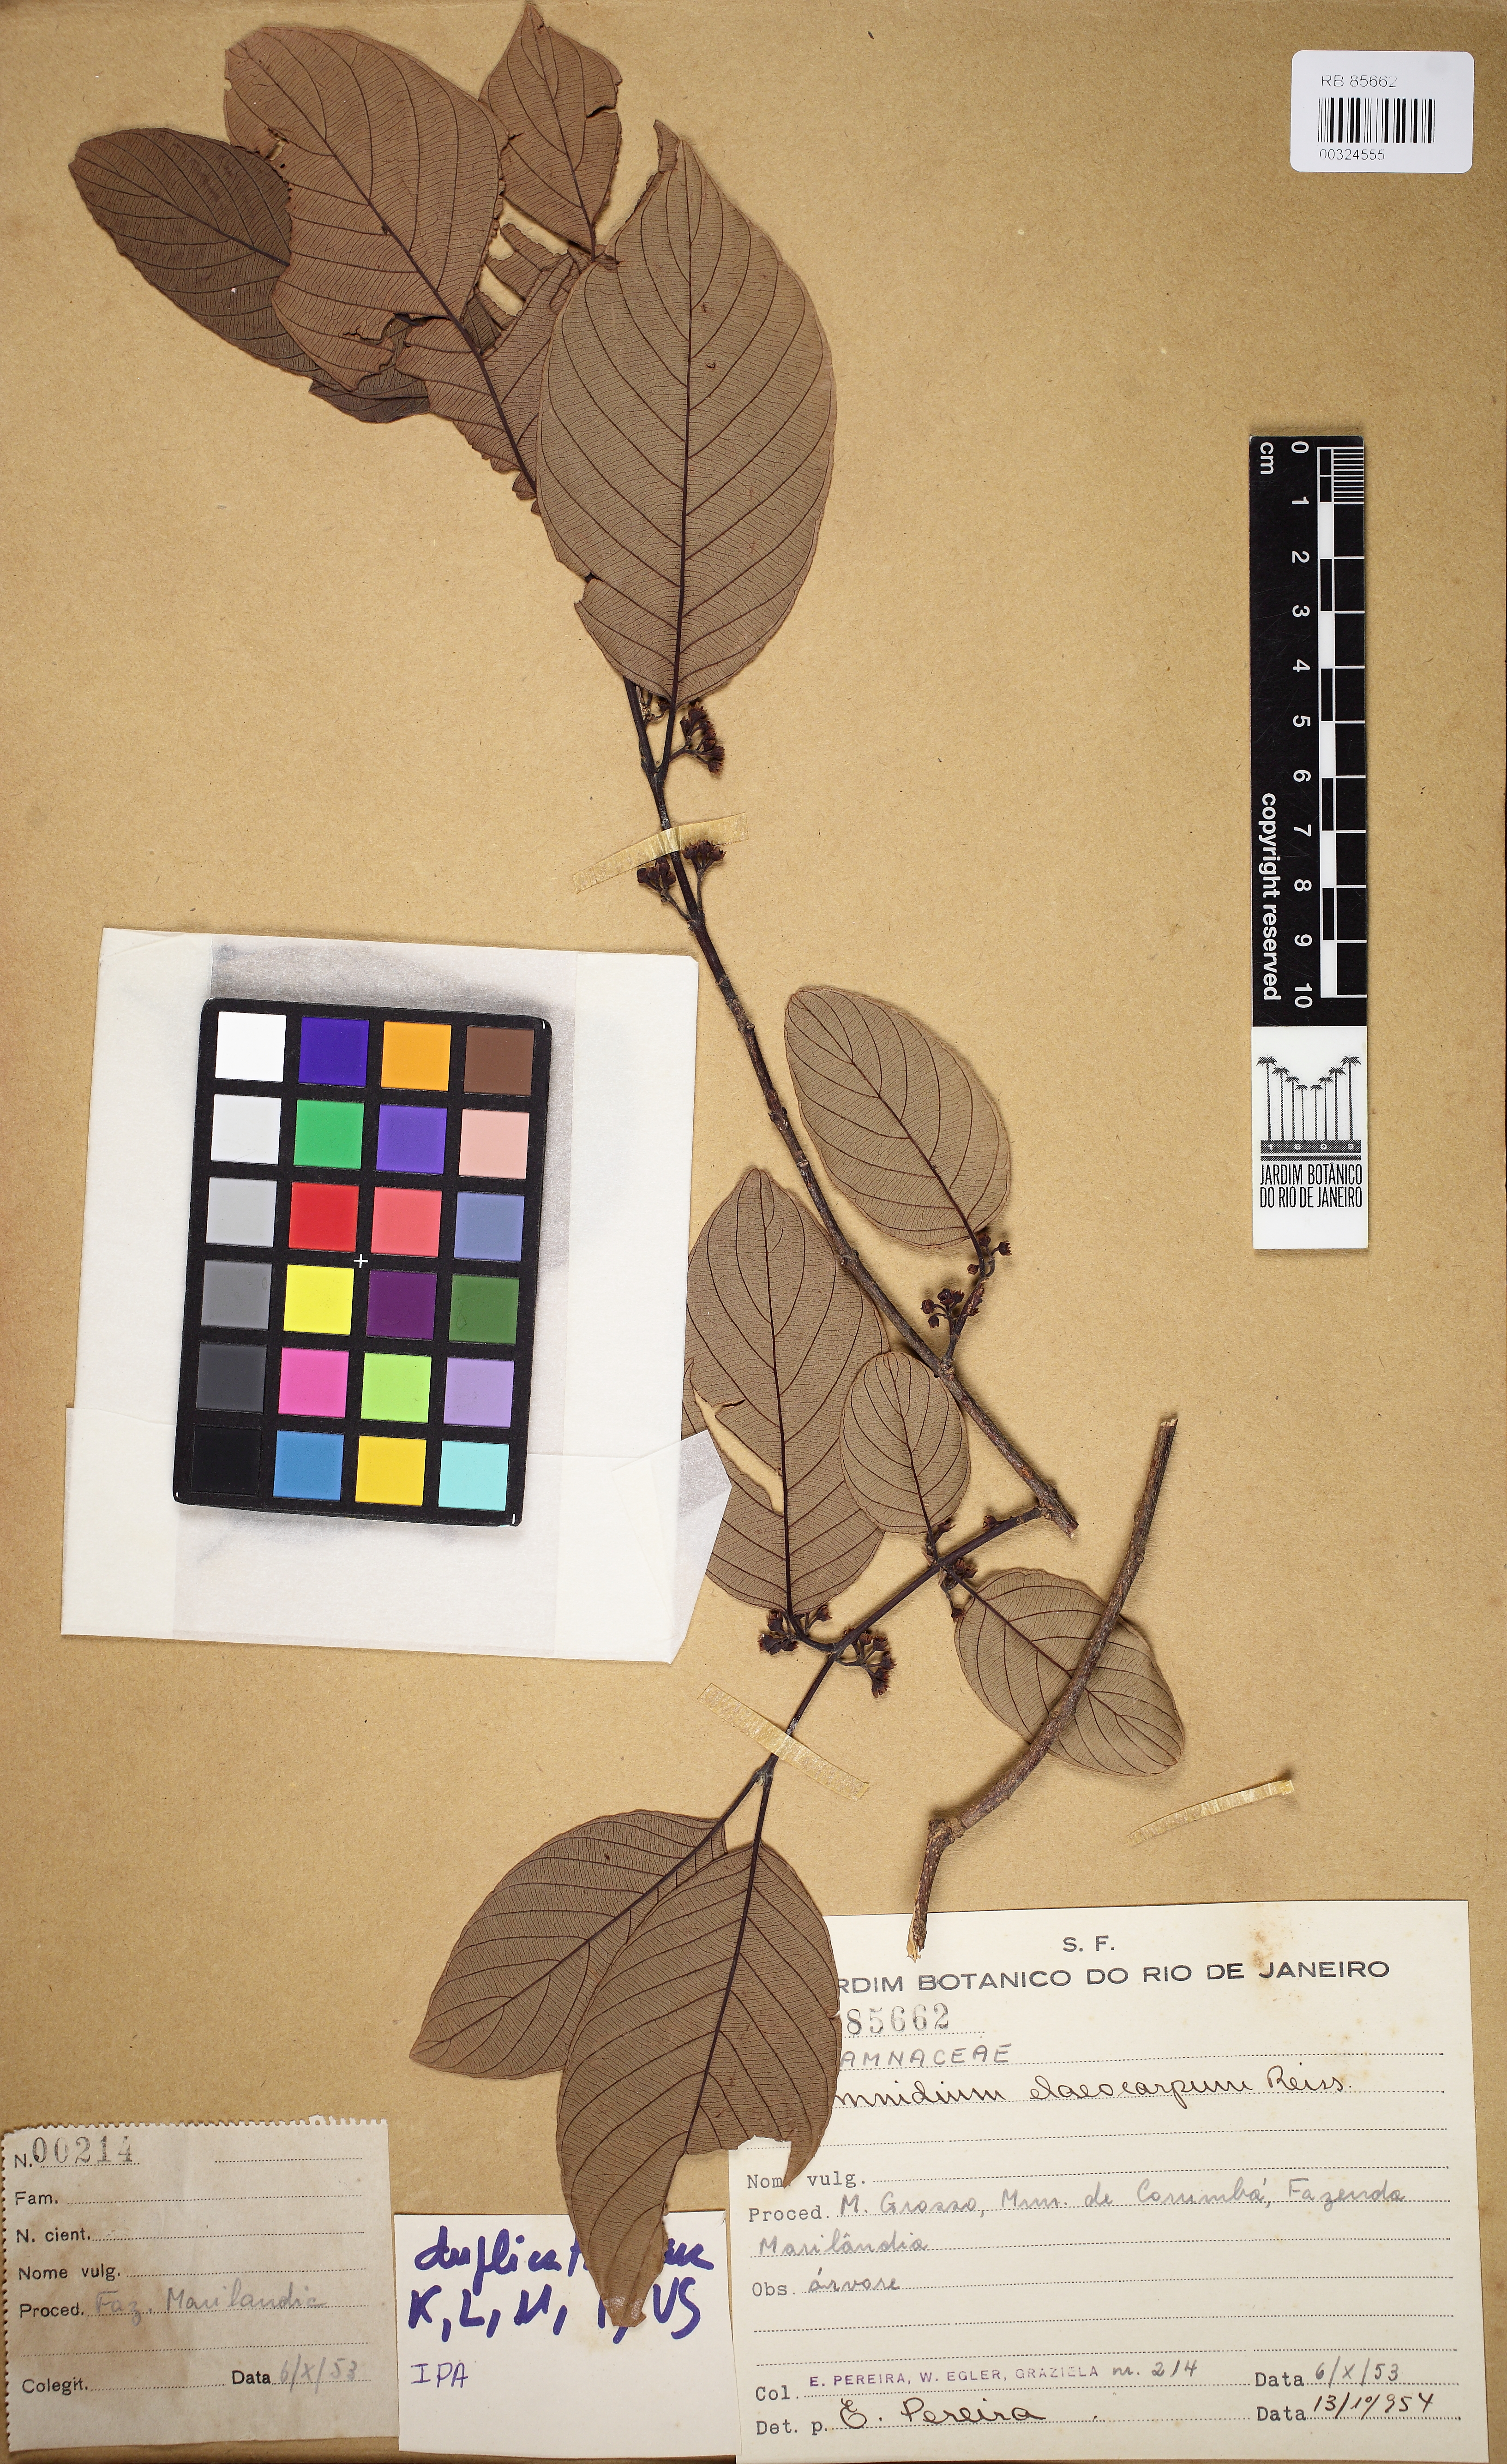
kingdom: Plantae
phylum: Tracheophyta
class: Magnoliopsida
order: Rosales
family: Rhamnaceae
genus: Rhamnidium
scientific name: Rhamnidium elaeocarpum
